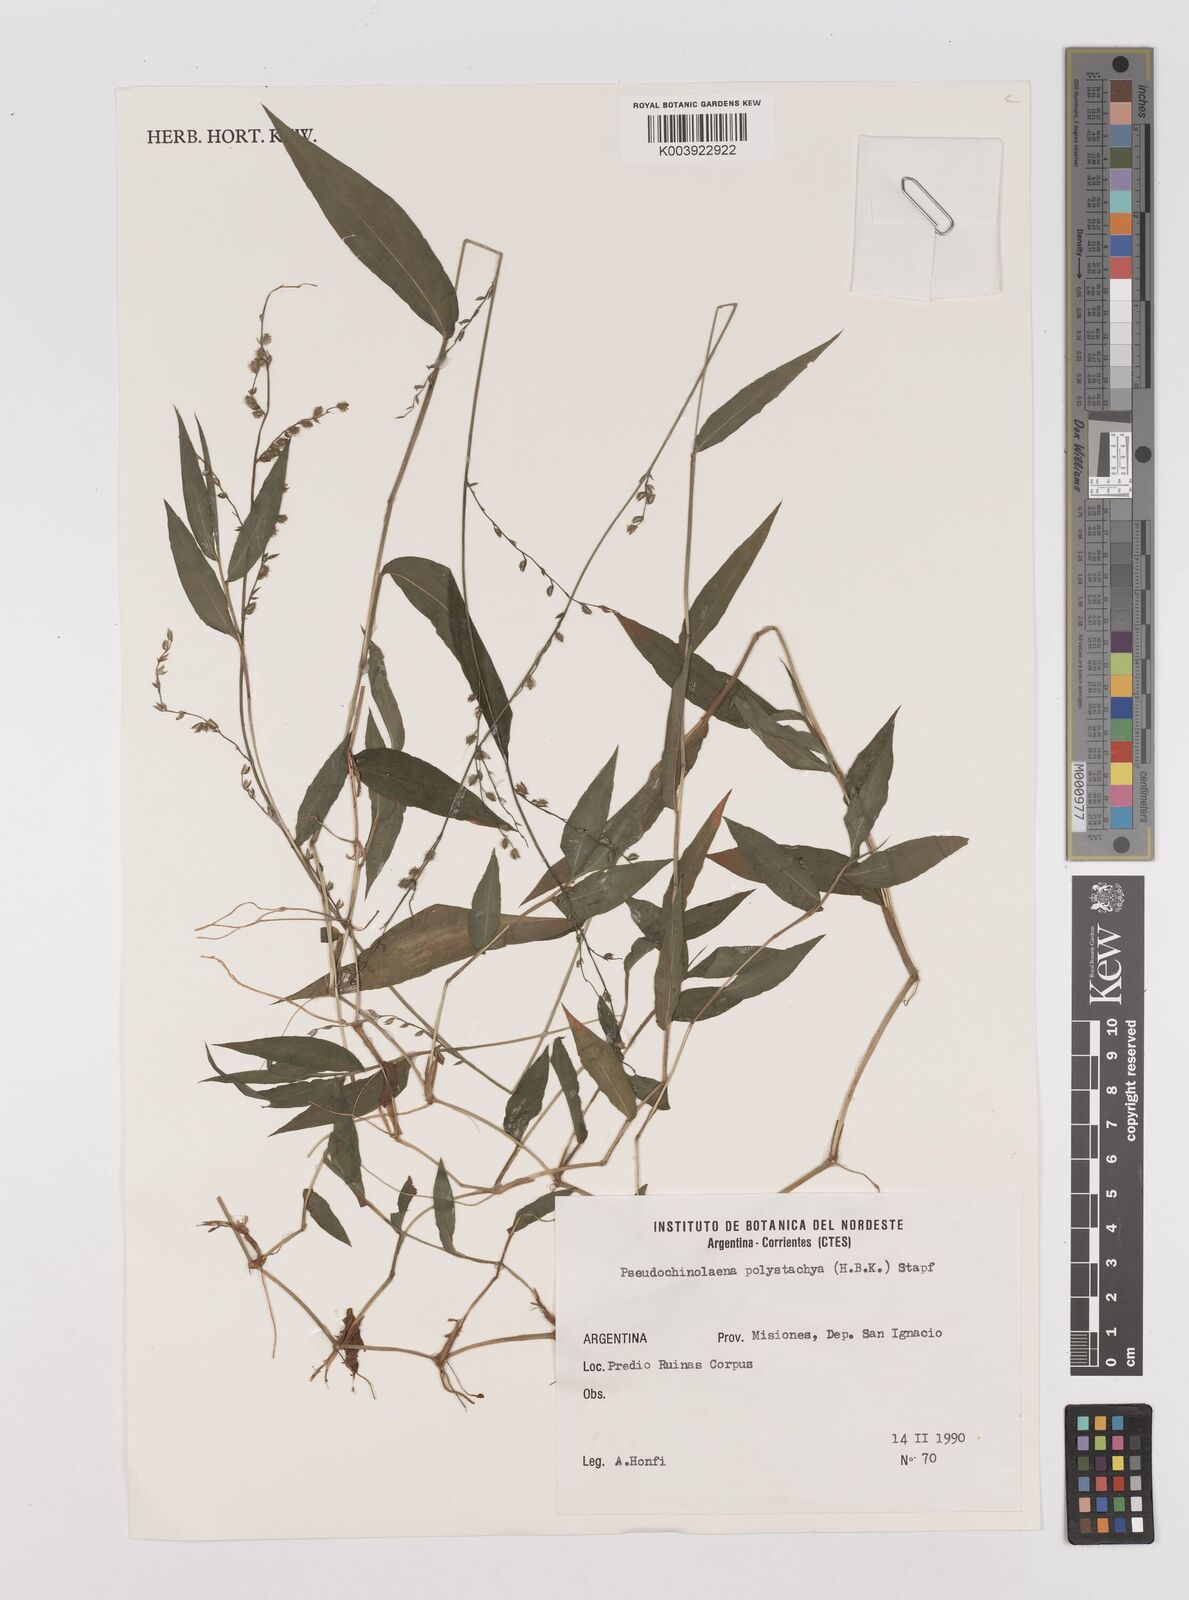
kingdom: Plantae
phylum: Tracheophyta
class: Liliopsida
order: Poales
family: Poaceae
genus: Pseudechinolaena
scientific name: Pseudechinolaena polystachya
